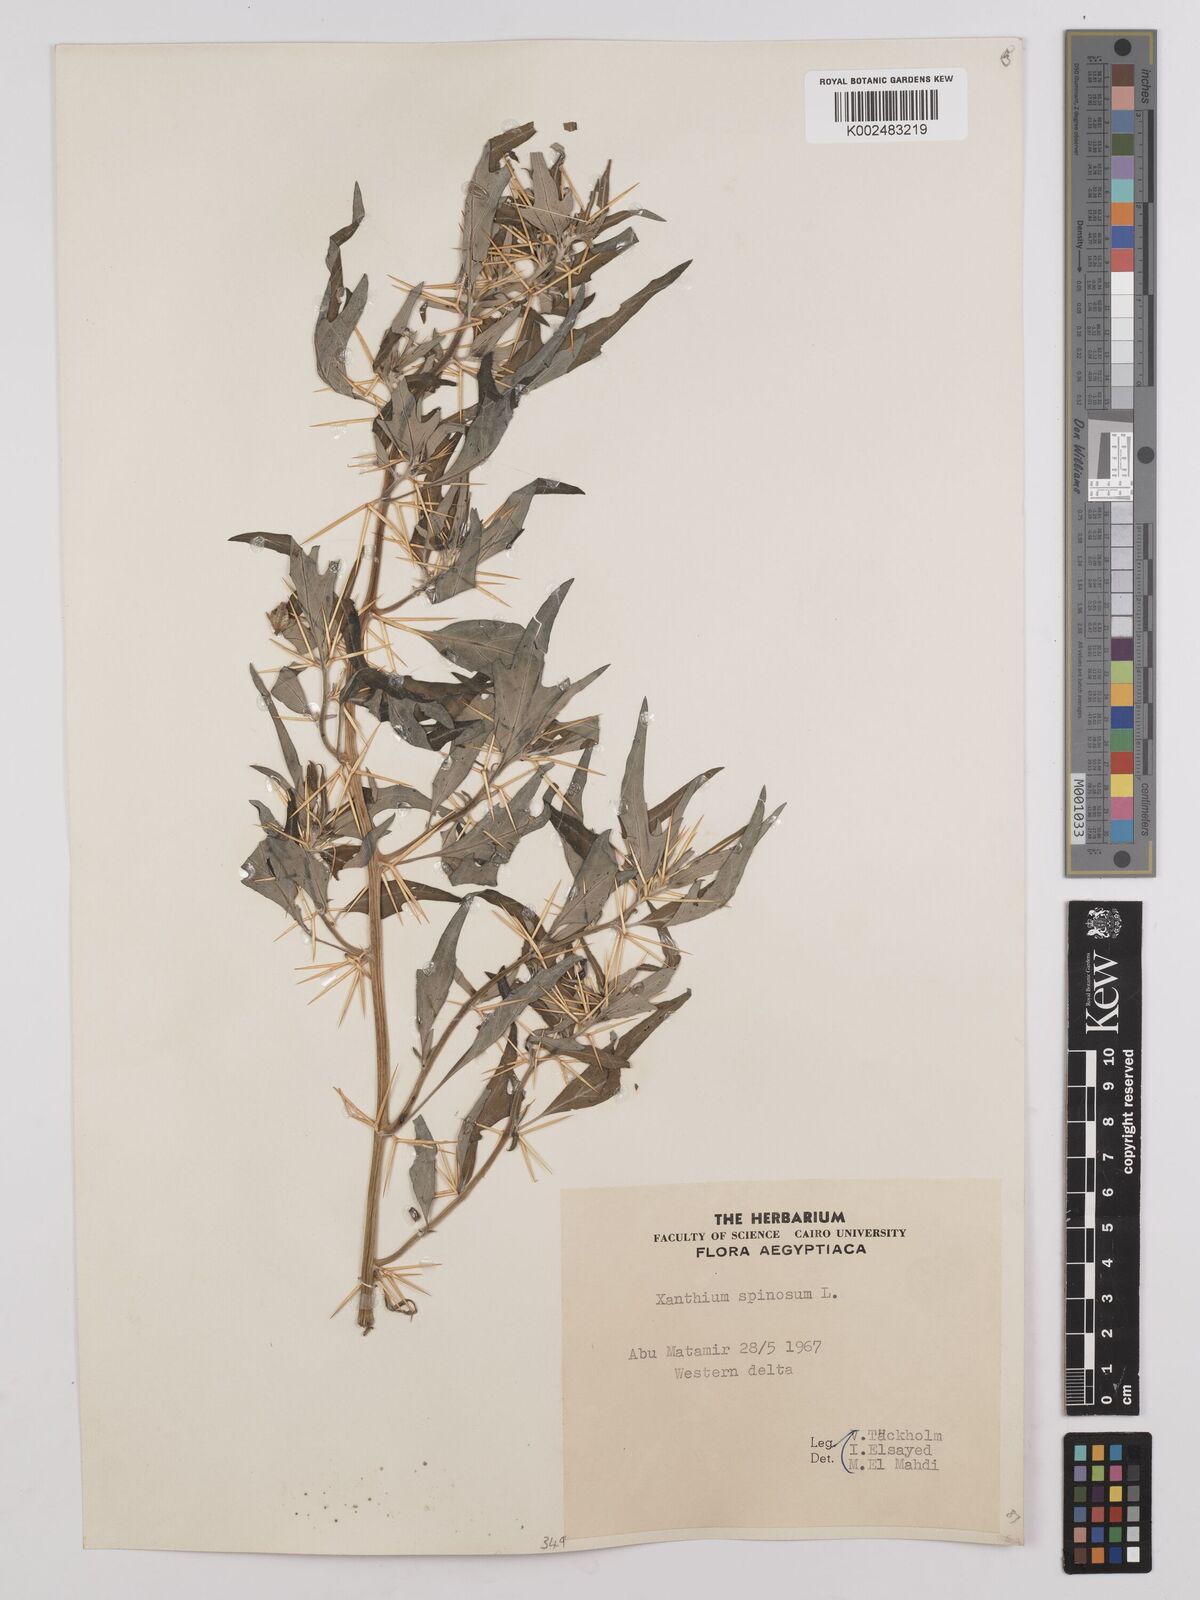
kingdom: Plantae
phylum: Tracheophyta
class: Magnoliopsida
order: Asterales
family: Asteraceae
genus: Xanthium
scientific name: Xanthium spinosum
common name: Spiny cocklebur
